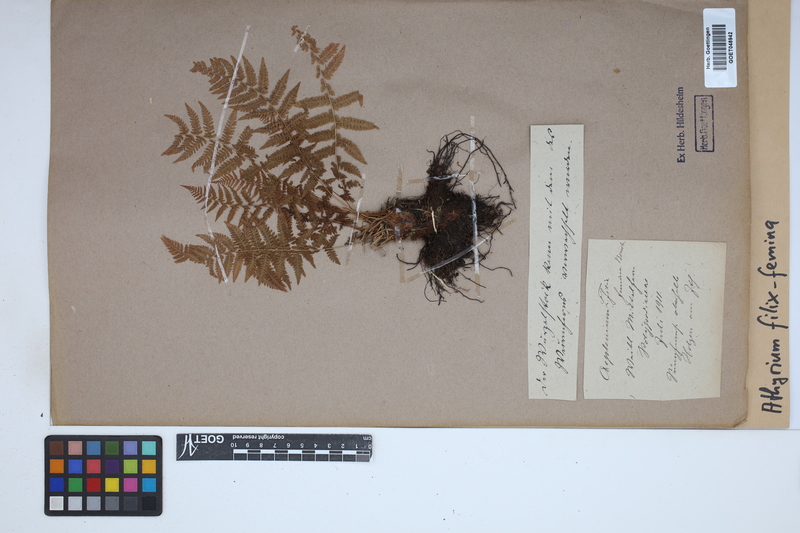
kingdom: Plantae
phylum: Tracheophyta
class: Polypodiopsida
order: Polypodiales
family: Athyriaceae
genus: Athyrium
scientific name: Athyrium filix-femina
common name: Lady fern
